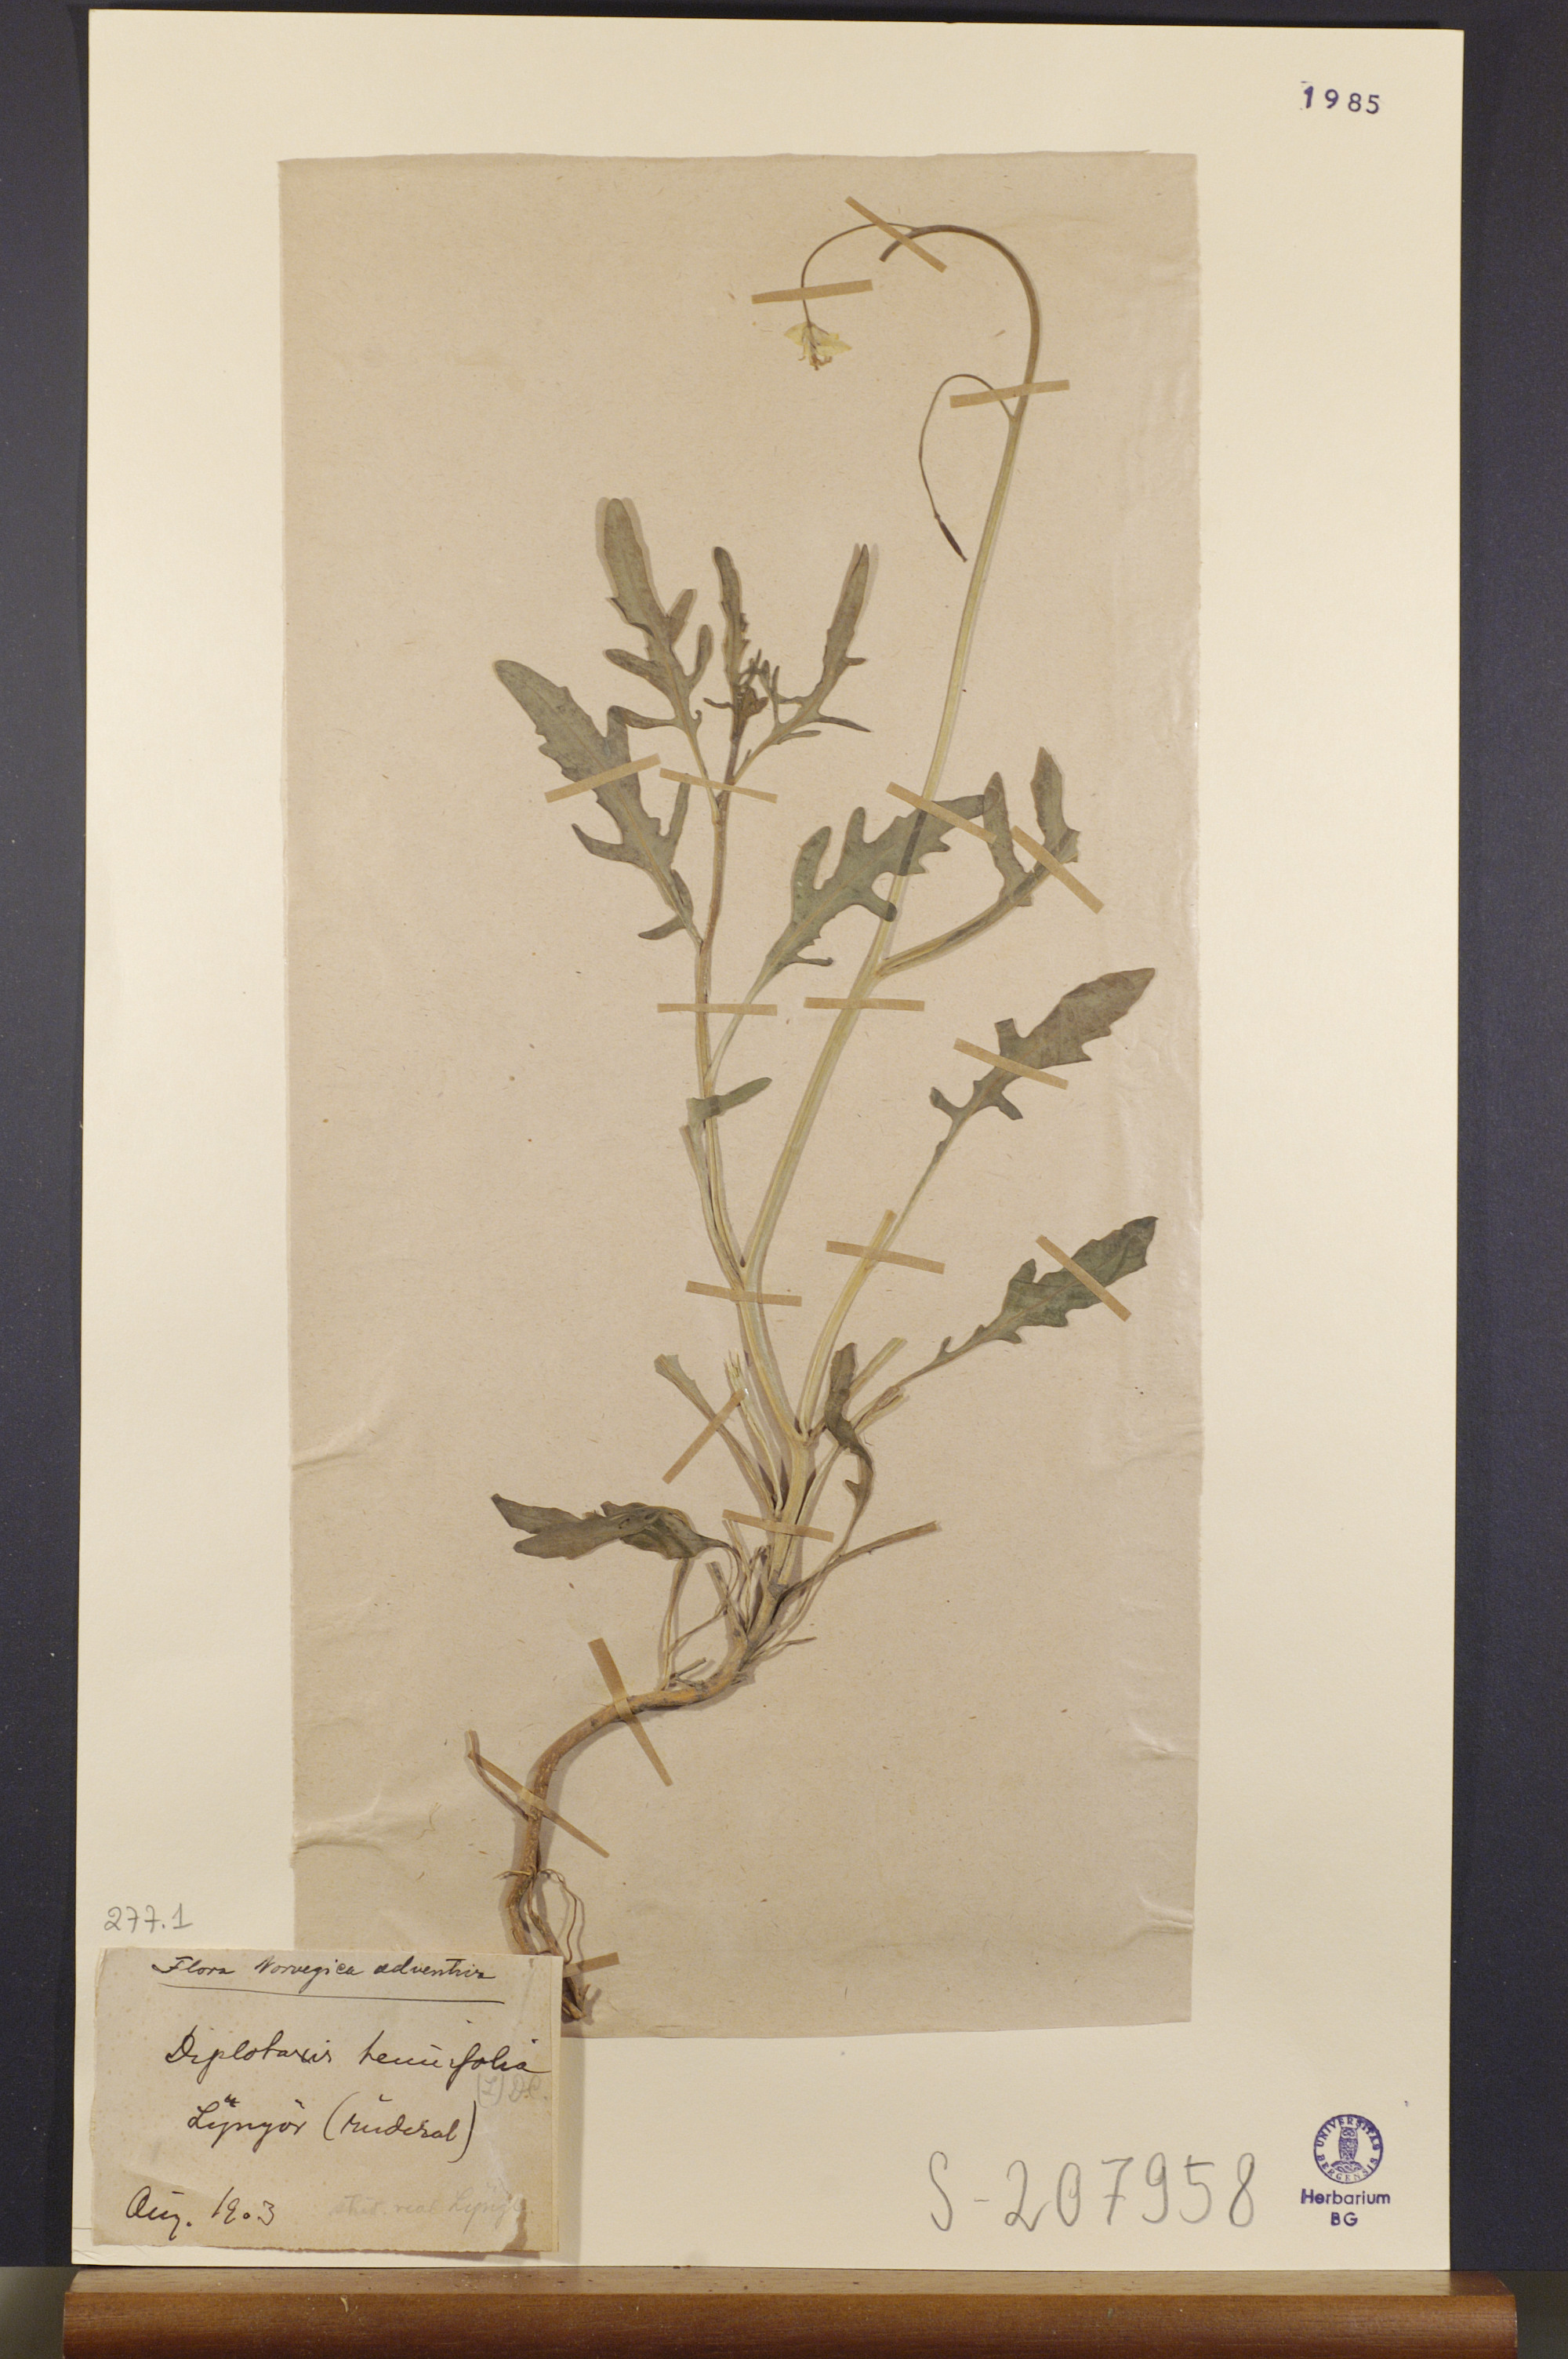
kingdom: Plantae
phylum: Tracheophyta
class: Magnoliopsida
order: Brassicales
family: Brassicaceae
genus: Diplotaxis
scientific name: Diplotaxis tenuifolia
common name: Perennial wall-rocket
